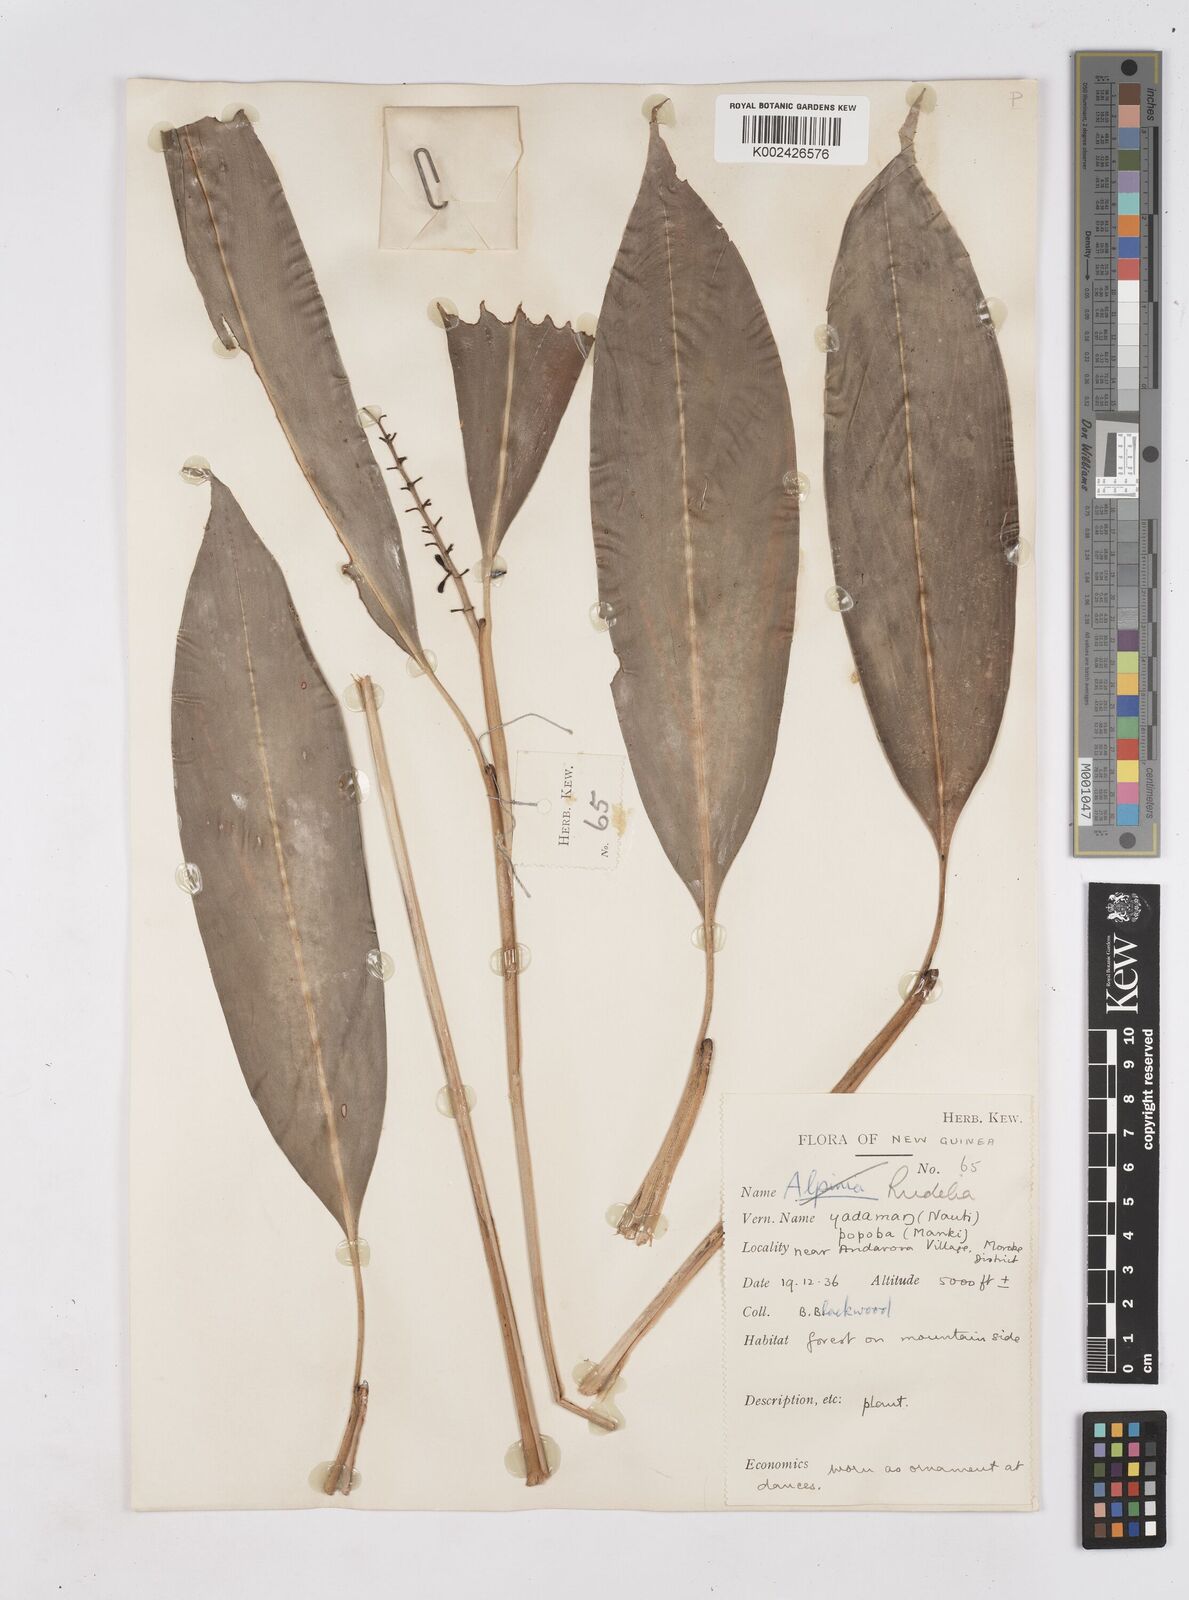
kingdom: Plantae
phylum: Tracheophyta
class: Liliopsida
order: Zingiberales
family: Zingiberaceae
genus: Riedelia
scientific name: Riedelia
